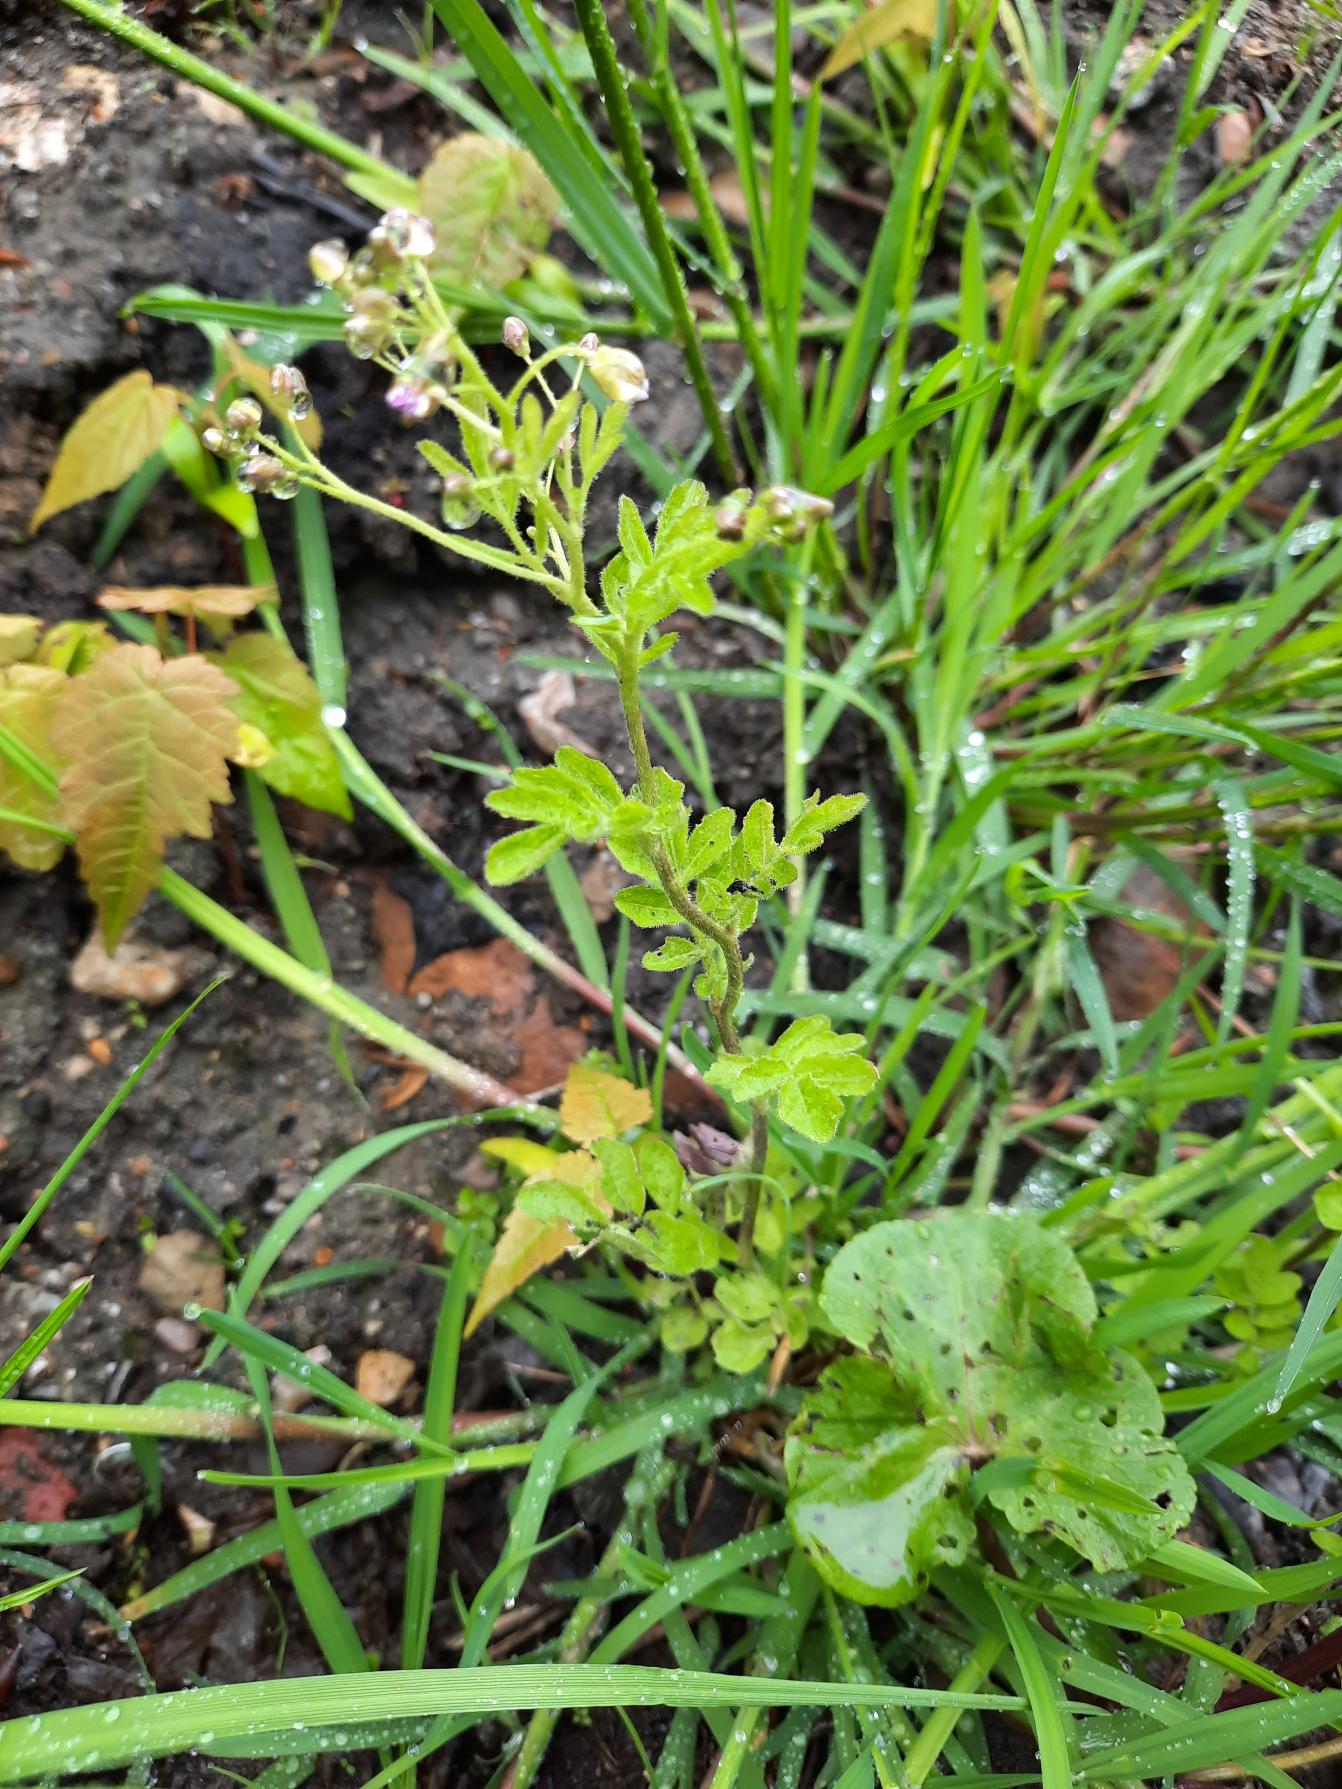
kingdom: Plantae
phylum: Tracheophyta
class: Magnoliopsida
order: Brassicales
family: Brassicaceae
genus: Cardamine
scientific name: Cardamine amara
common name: Vandkarse
